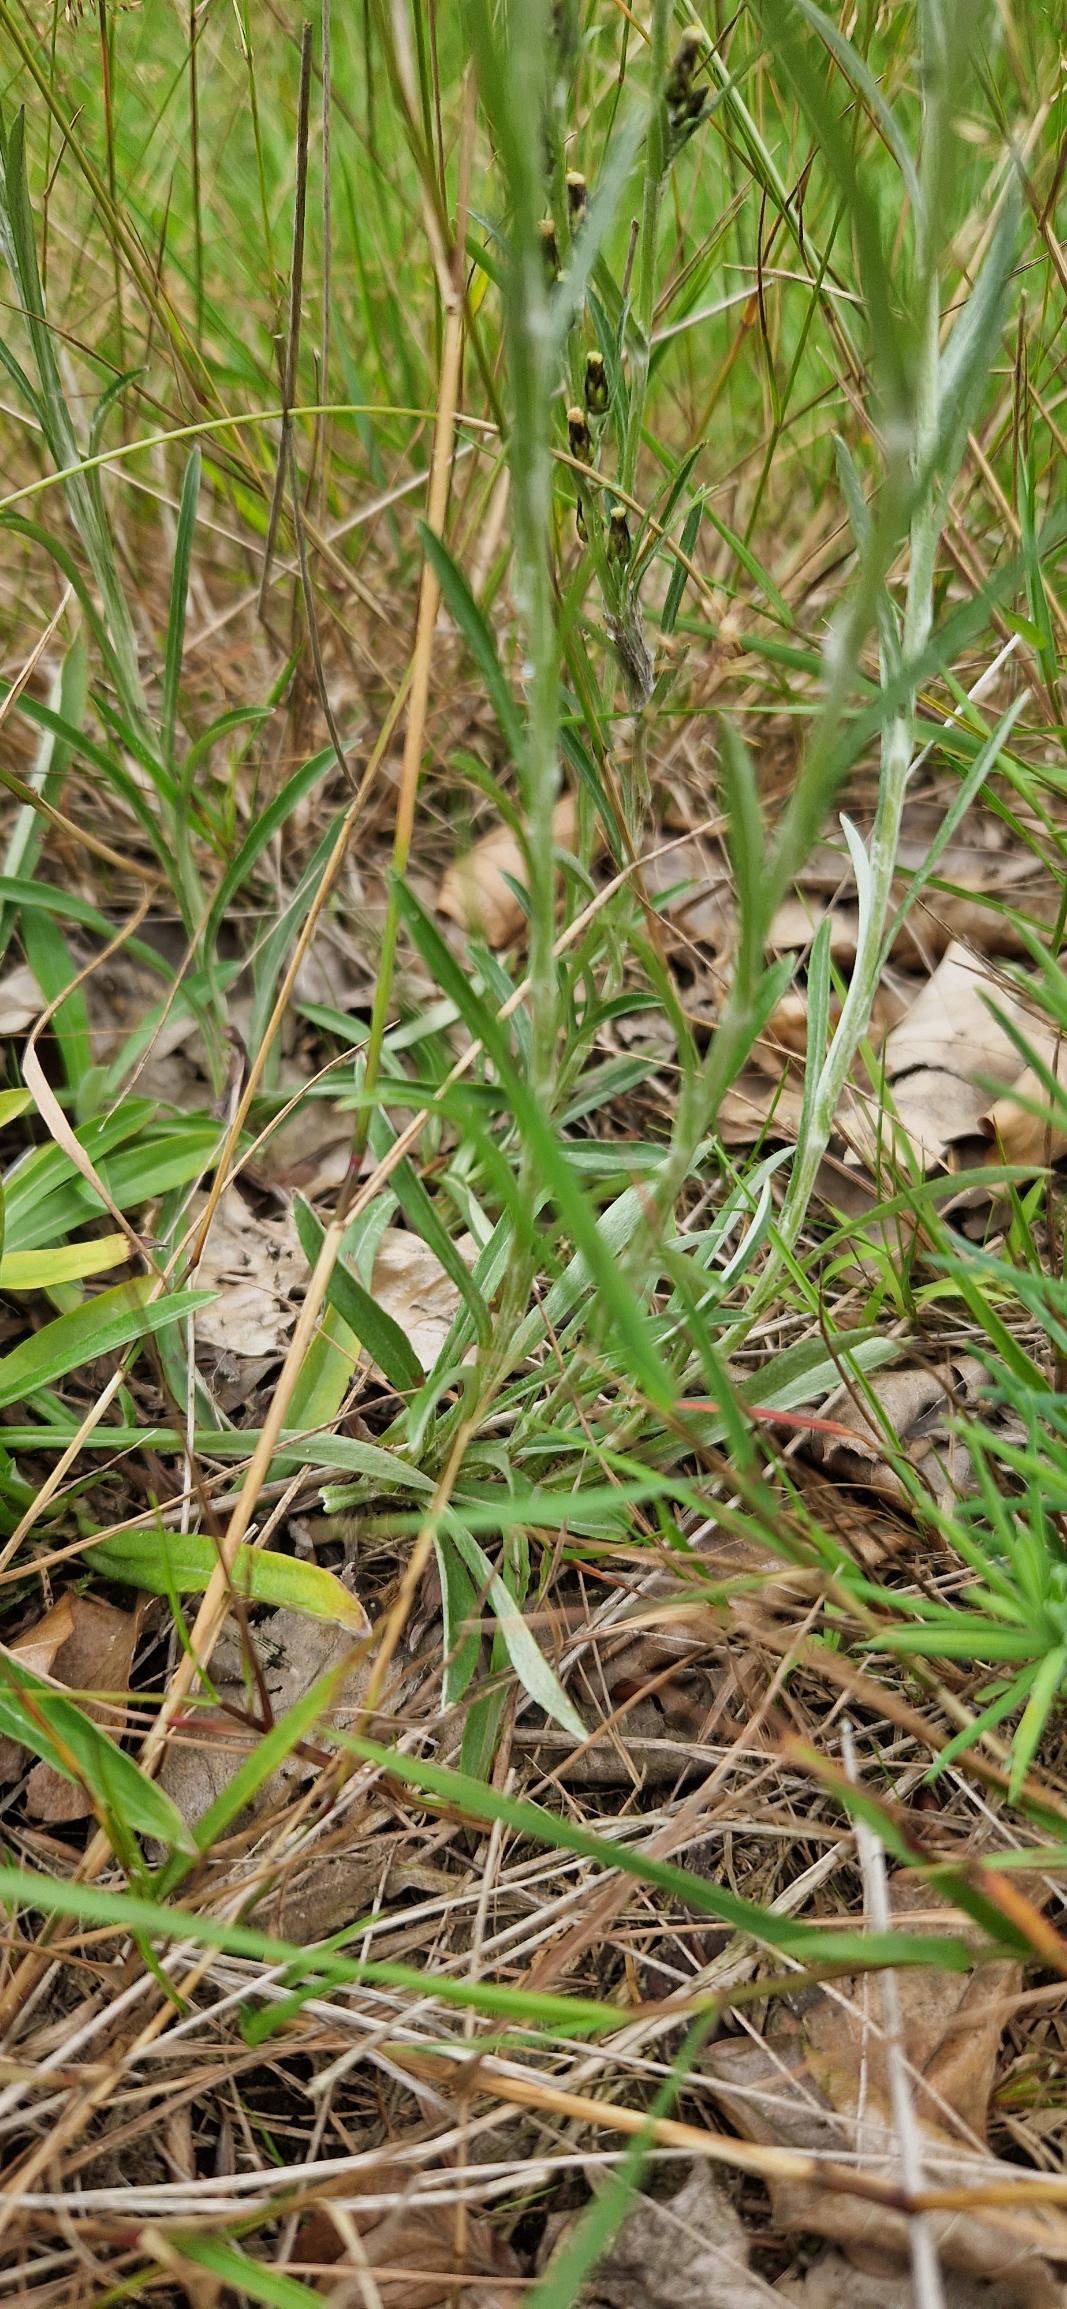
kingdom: Plantae
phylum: Tracheophyta
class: Magnoliopsida
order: Asterales
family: Asteraceae
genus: Omalotheca
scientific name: Omalotheca sylvatica
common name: Rank evighedsblomst
